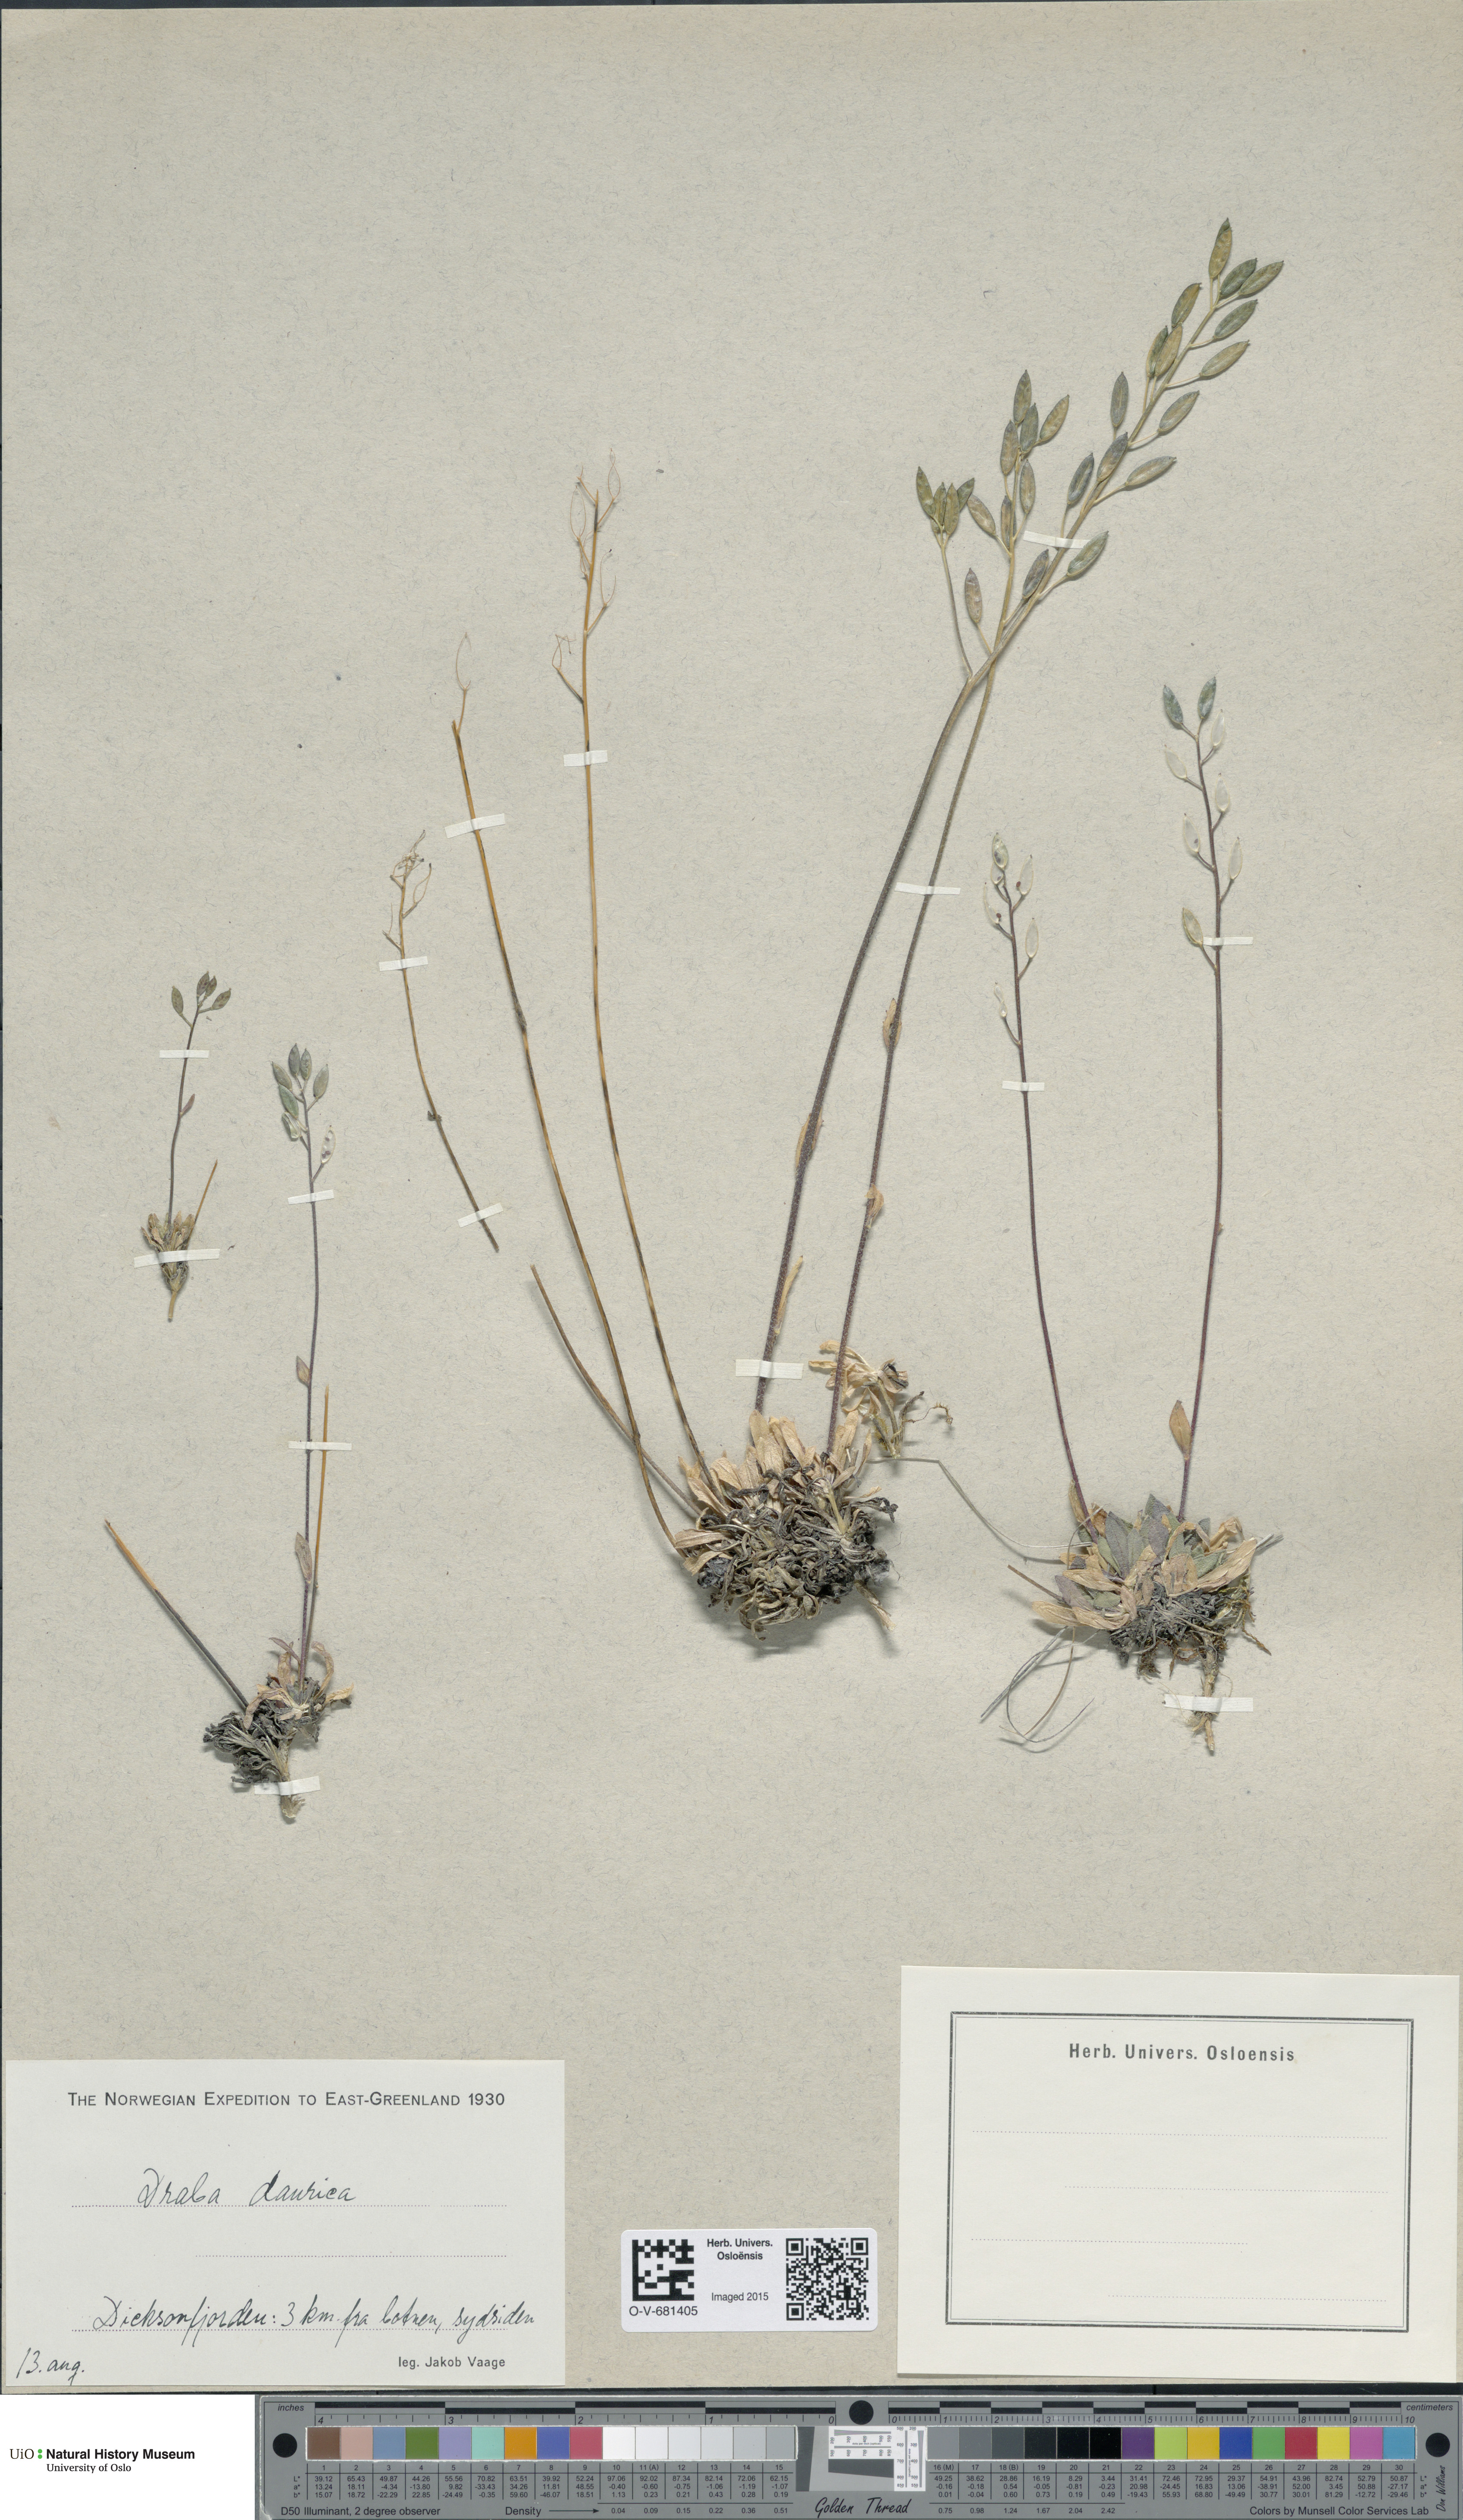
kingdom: Plantae
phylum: Tracheophyta
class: Magnoliopsida
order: Brassicales
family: Brassicaceae
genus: Draba
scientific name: Draba glabella
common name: Glaucous draba
